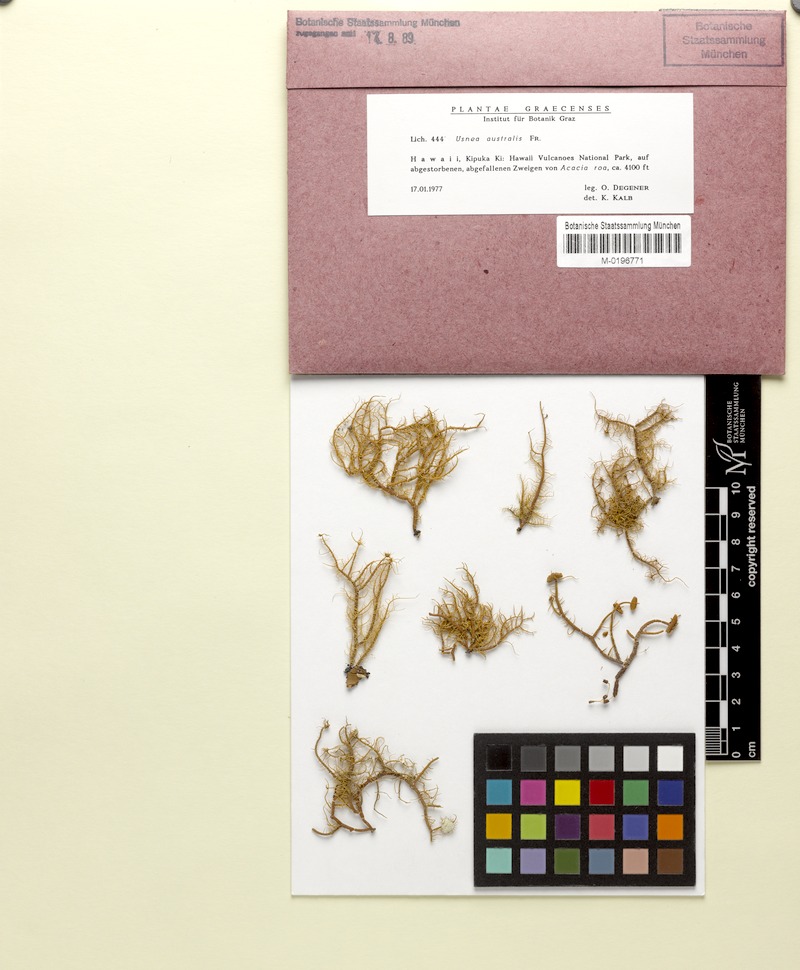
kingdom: Fungi
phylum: Ascomycota
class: Lecanoromycetes
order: Lecanorales
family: Parmeliaceae
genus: Usnea
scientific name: Usnea australis
